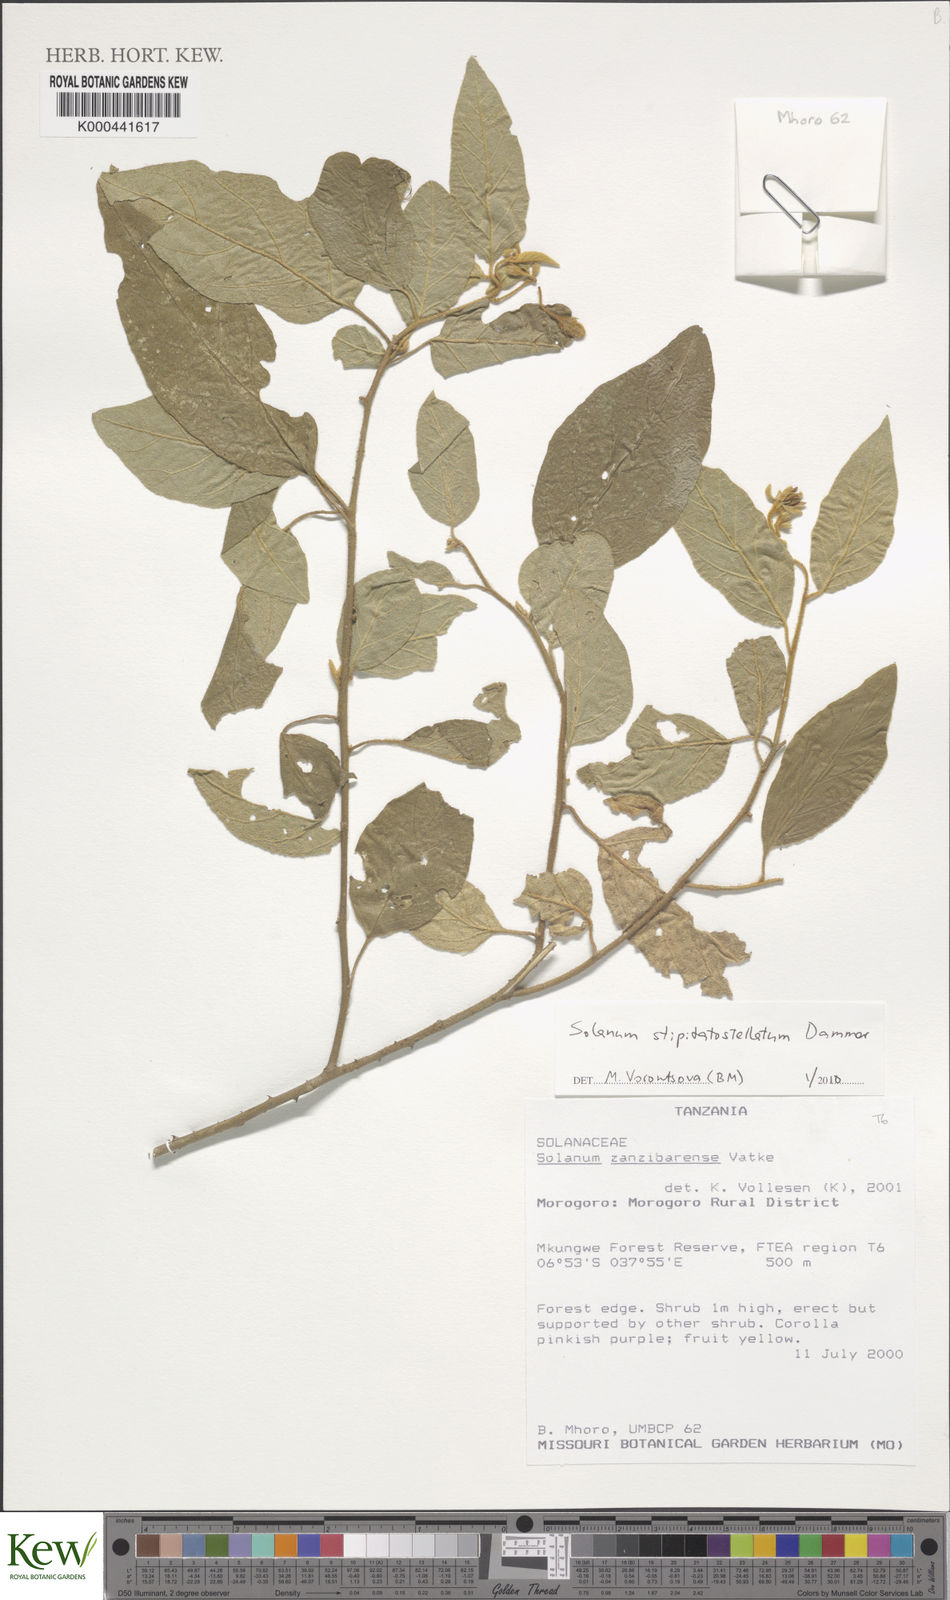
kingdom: Plantae
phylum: Tracheophyta
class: Magnoliopsida
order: Solanales
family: Solanaceae
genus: Solanum
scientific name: Solanum stipitatostellatum
